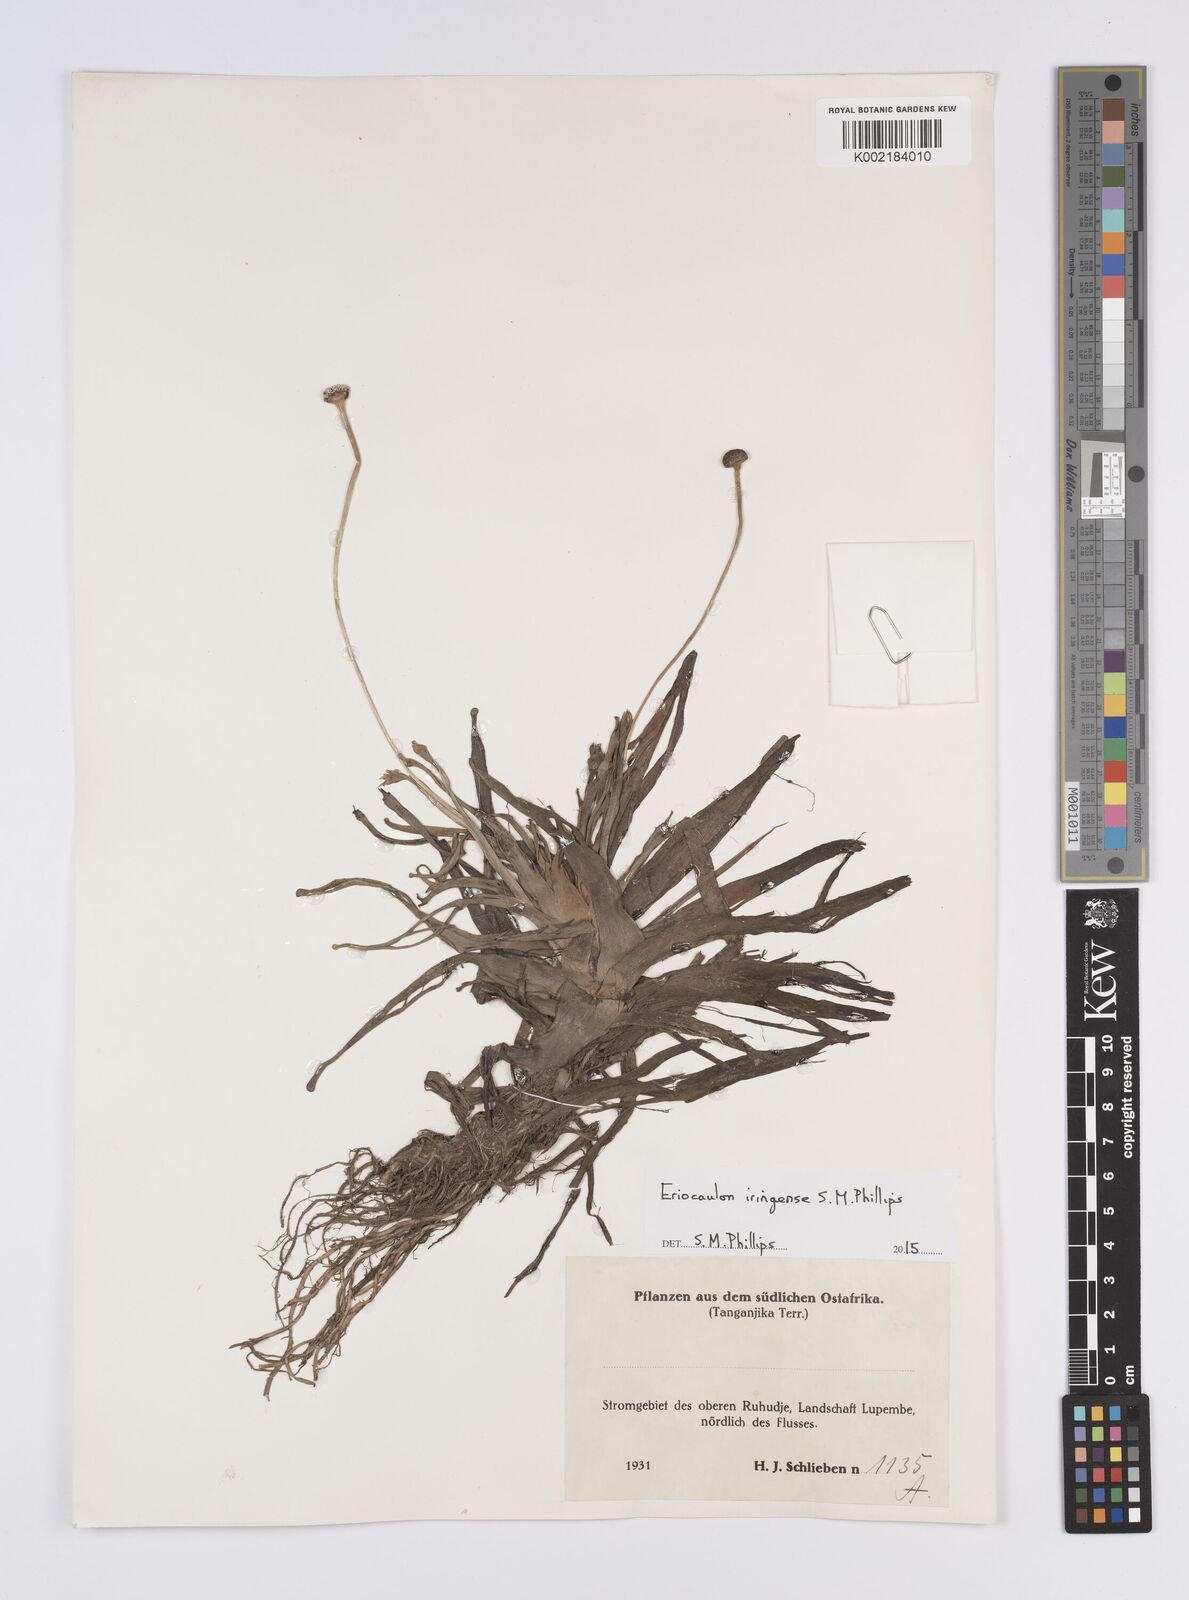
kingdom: Plantae
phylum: Tracheophyta
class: Liliopsida
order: Poales
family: Eriocaulaceae
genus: Eriocaulon
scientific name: Eriocaulon iringense
